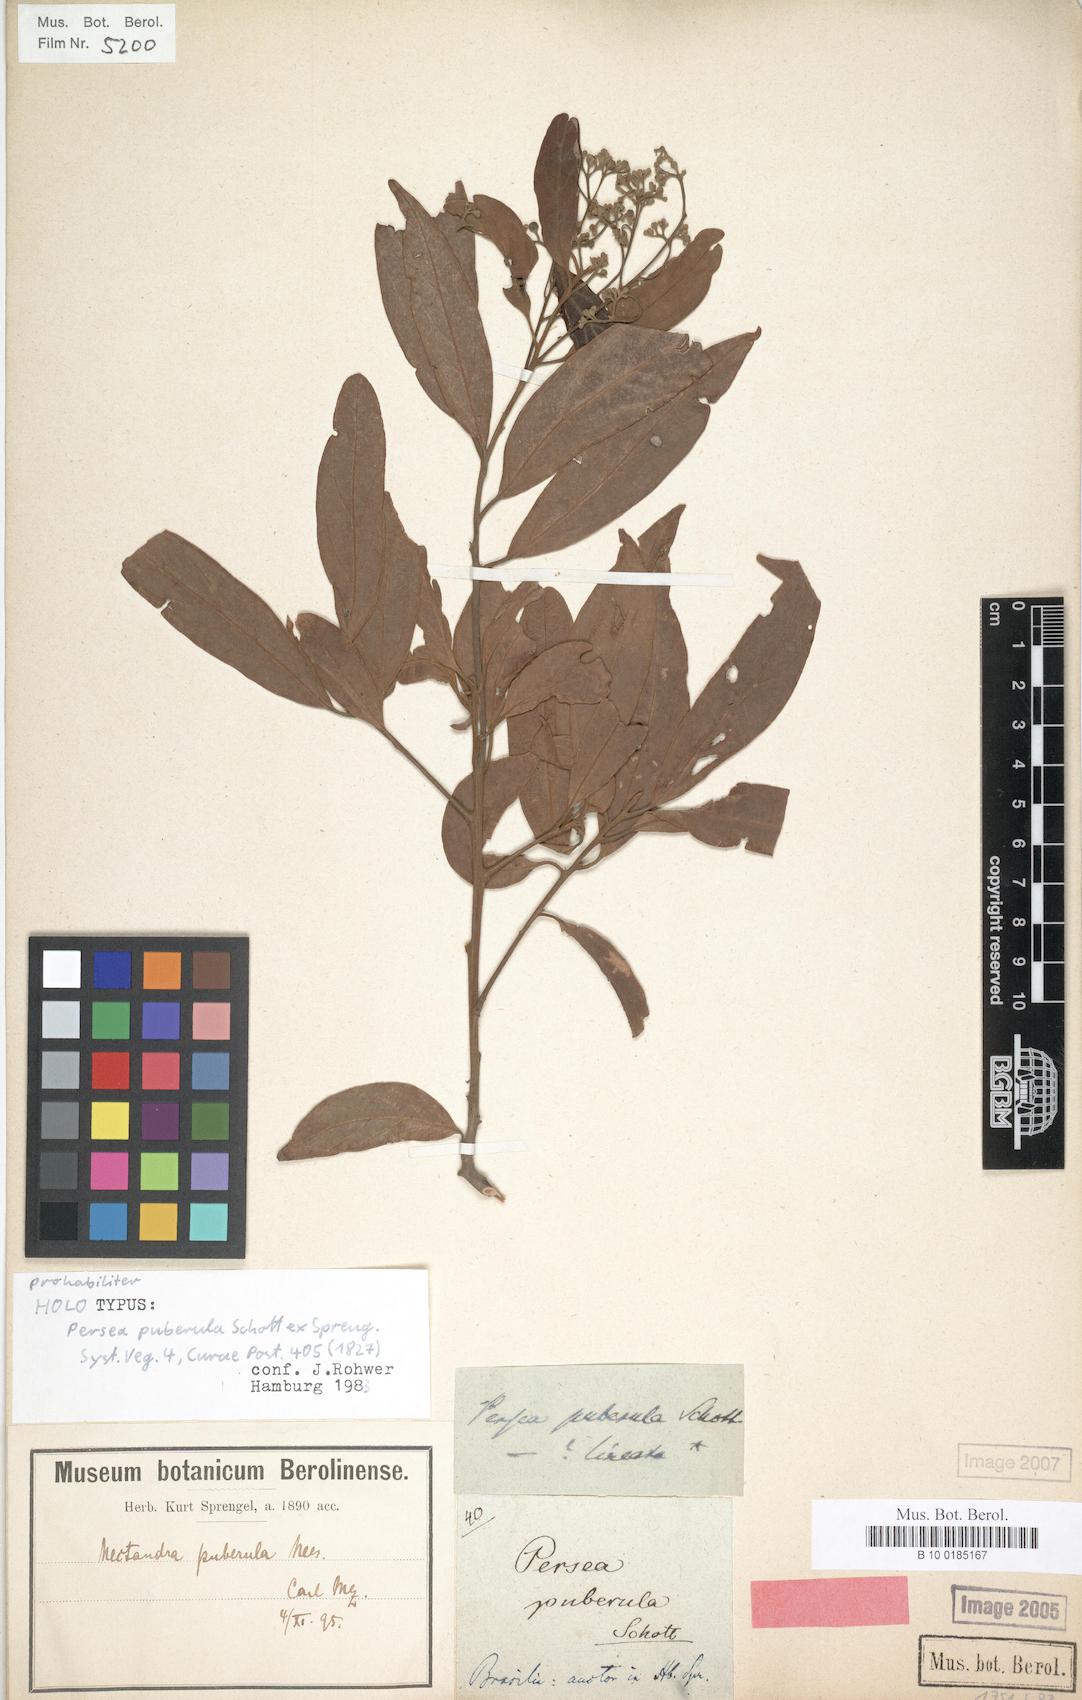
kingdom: Plantae
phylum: Tracheophyta
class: Magnoliopsida
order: Laurales
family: Lauraceae
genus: Nectandra
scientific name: Nectandra puberula
